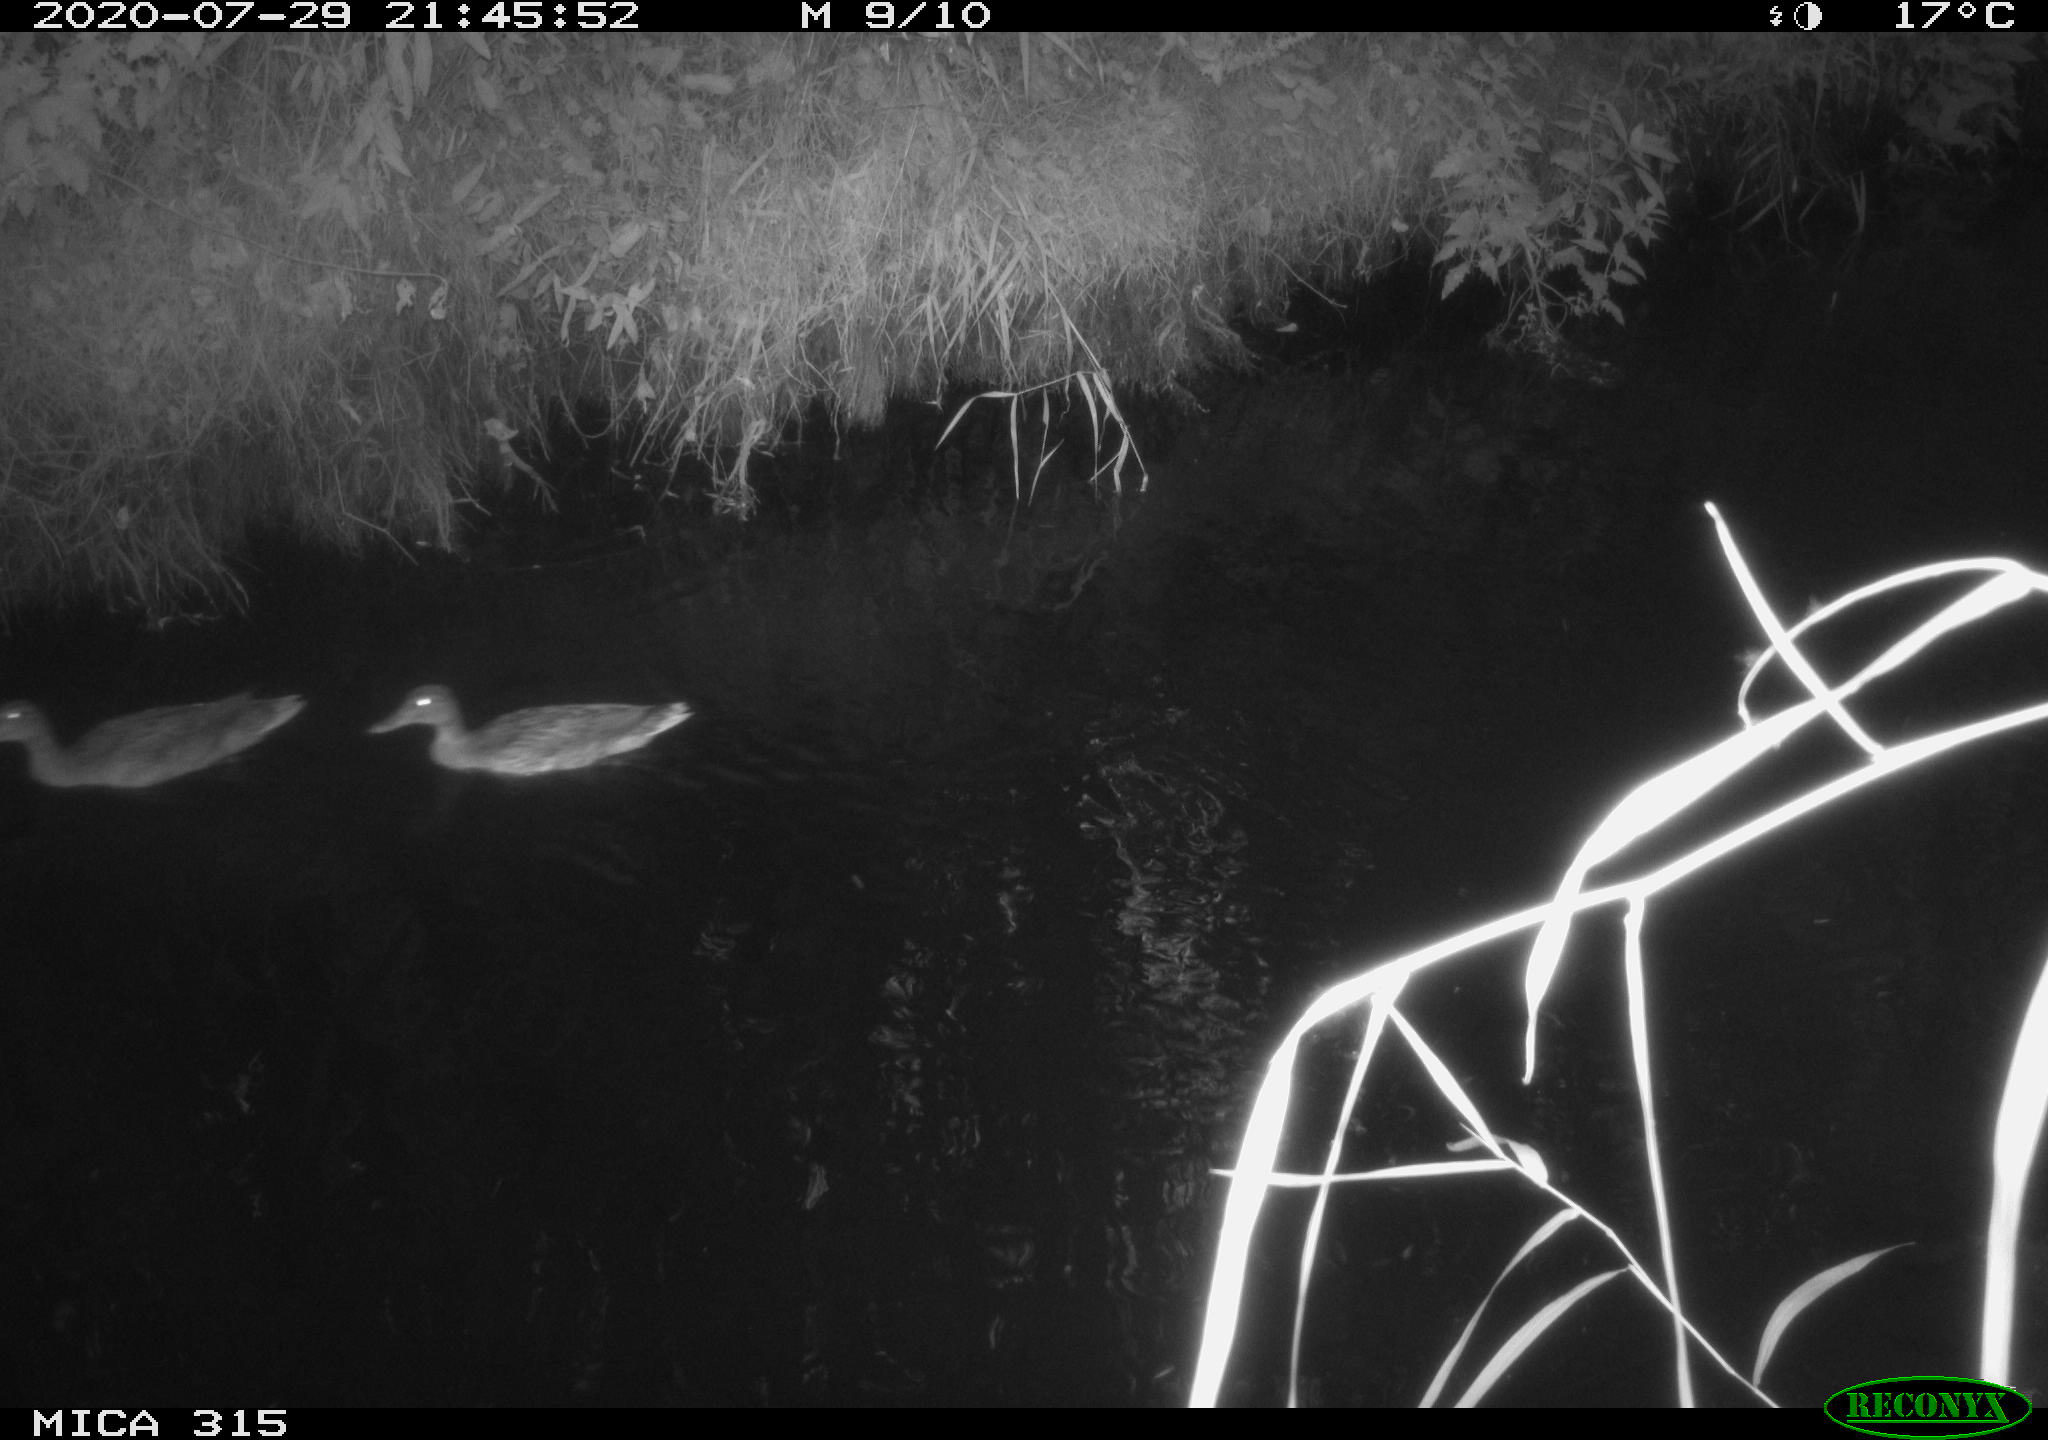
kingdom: Animalia
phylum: Chordata
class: Aves
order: Anseriformes
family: Anatidae
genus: Anas
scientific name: Anas platyrhynchos
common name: Mallard
